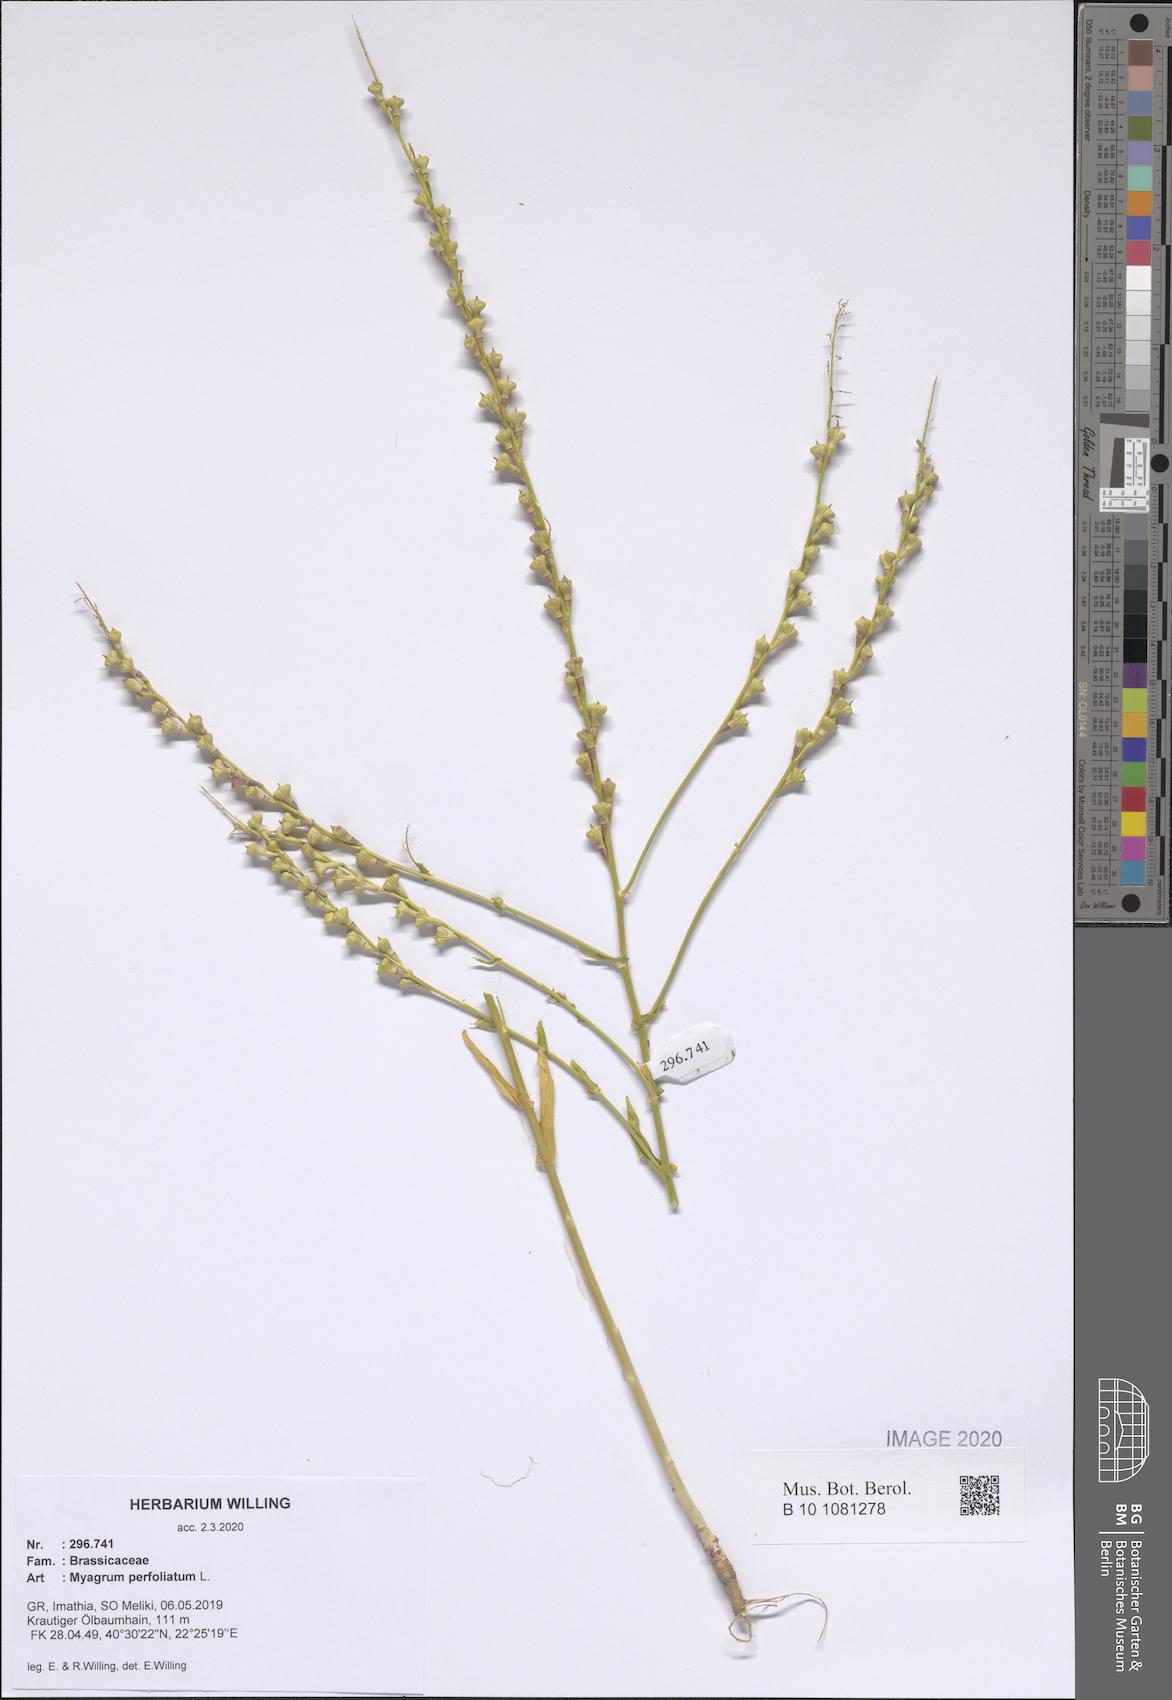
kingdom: Plantae
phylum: Tracheophyta
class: Magnoliopsida
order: Brassicales
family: Brassicaceae
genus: Myagrum
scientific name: Myagrum perfoliatum
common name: Mitre cress
